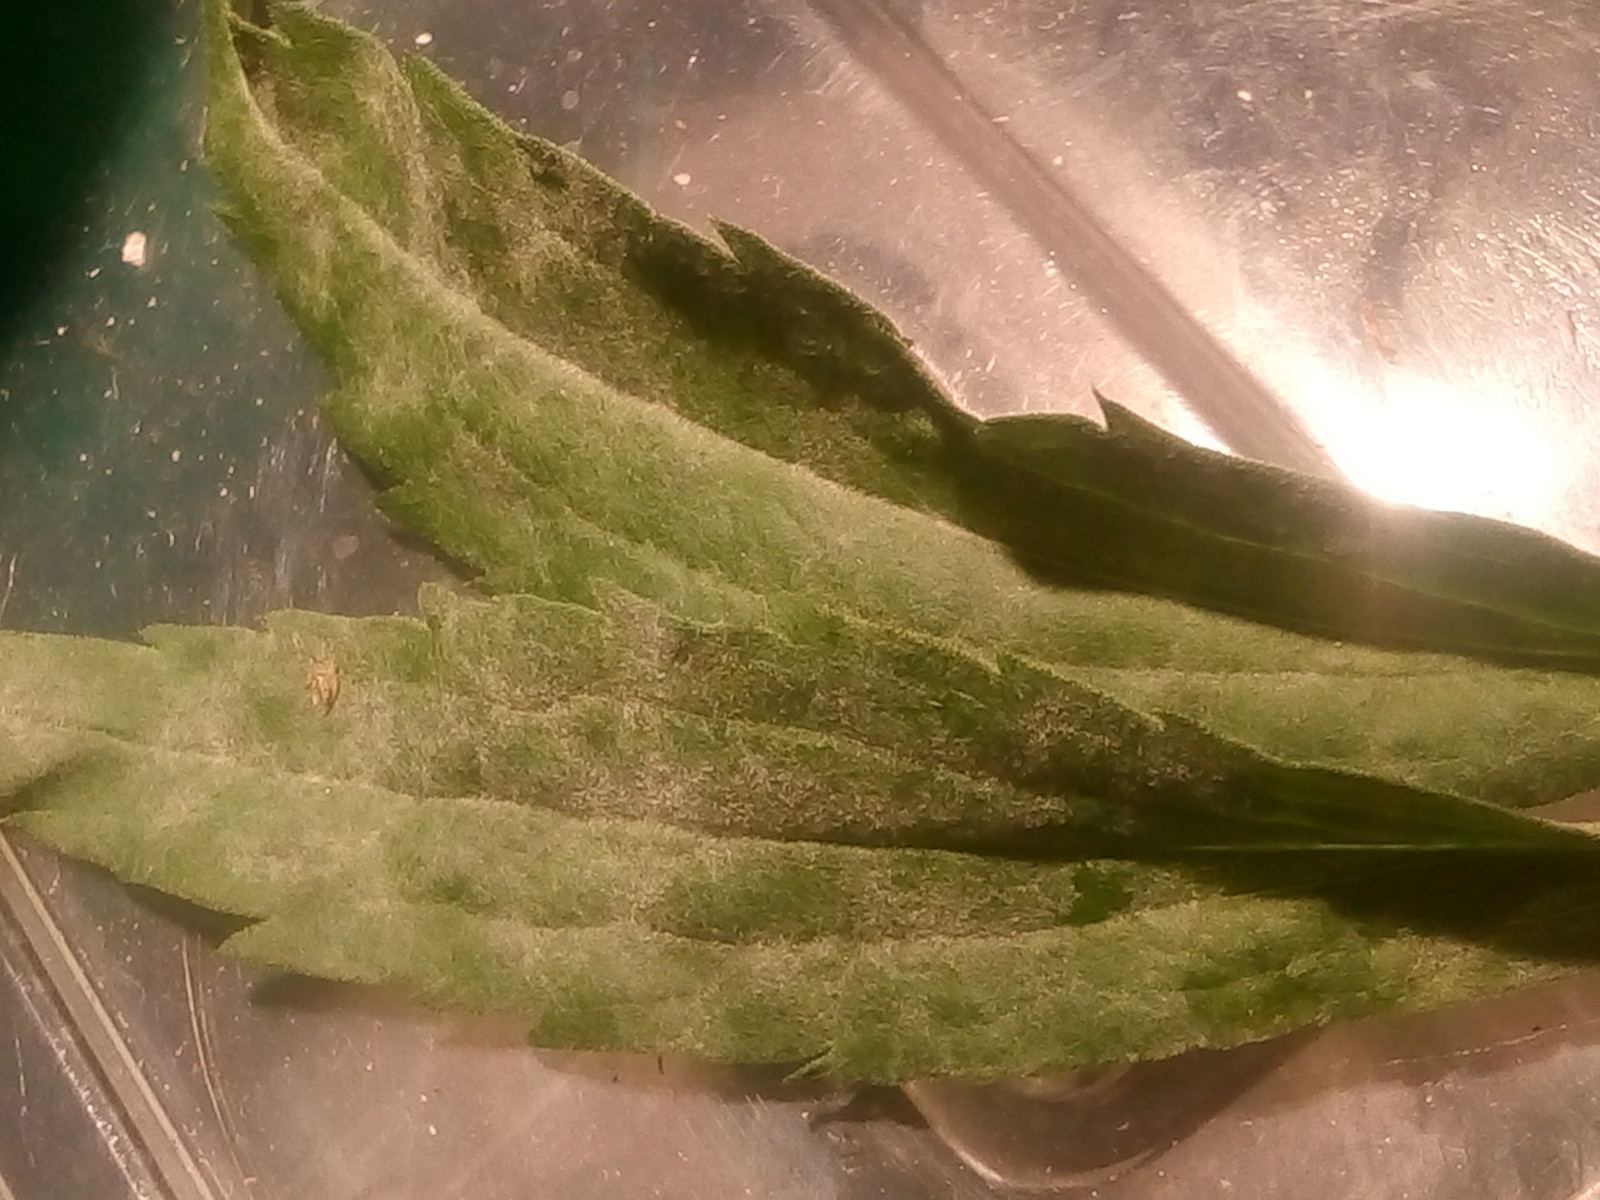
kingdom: Fungi
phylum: Ascomycota
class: Leotiomycetes
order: Helotiales
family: Erysiphaceae
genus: Golovinomyces
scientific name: Golovinomyces asterum
